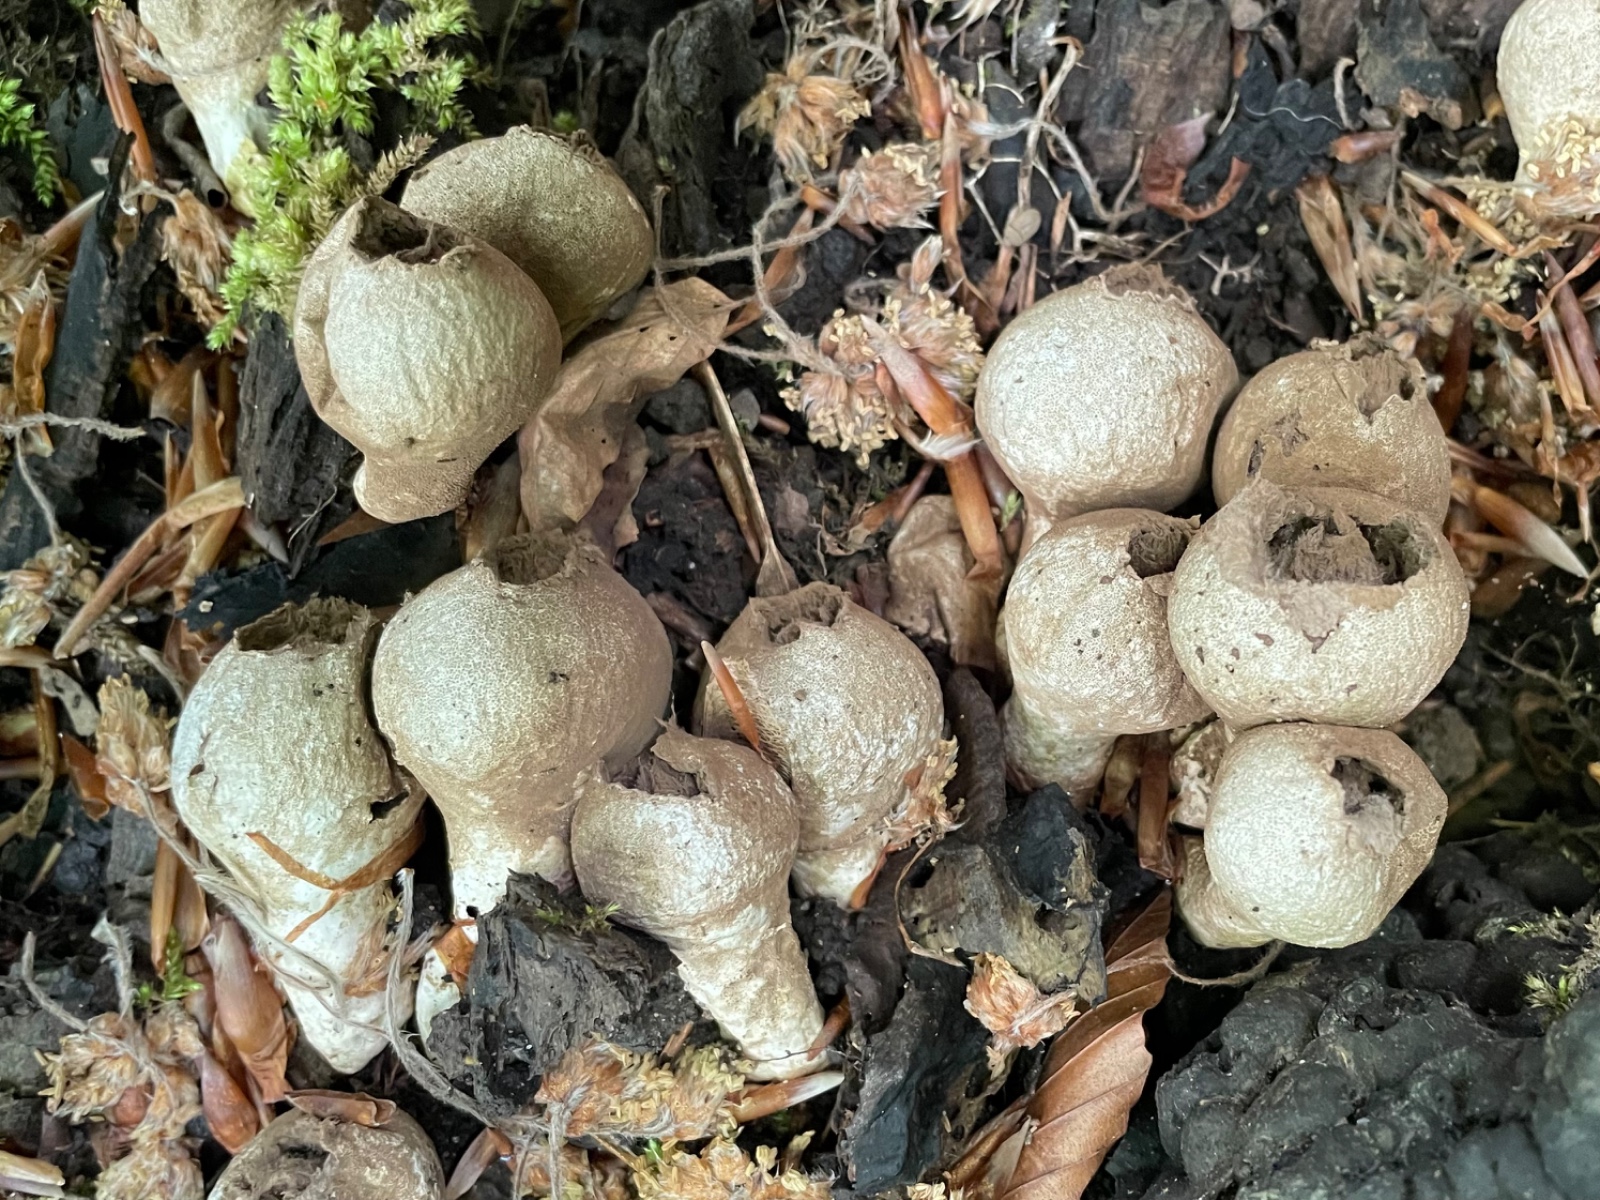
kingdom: Fungi
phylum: Basidiomycota
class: Agaricomycetes
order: Agaricales
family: Lycoperdaceae
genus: Apioperdon
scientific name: Apioperdon pyriforme
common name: pære-støvbold
